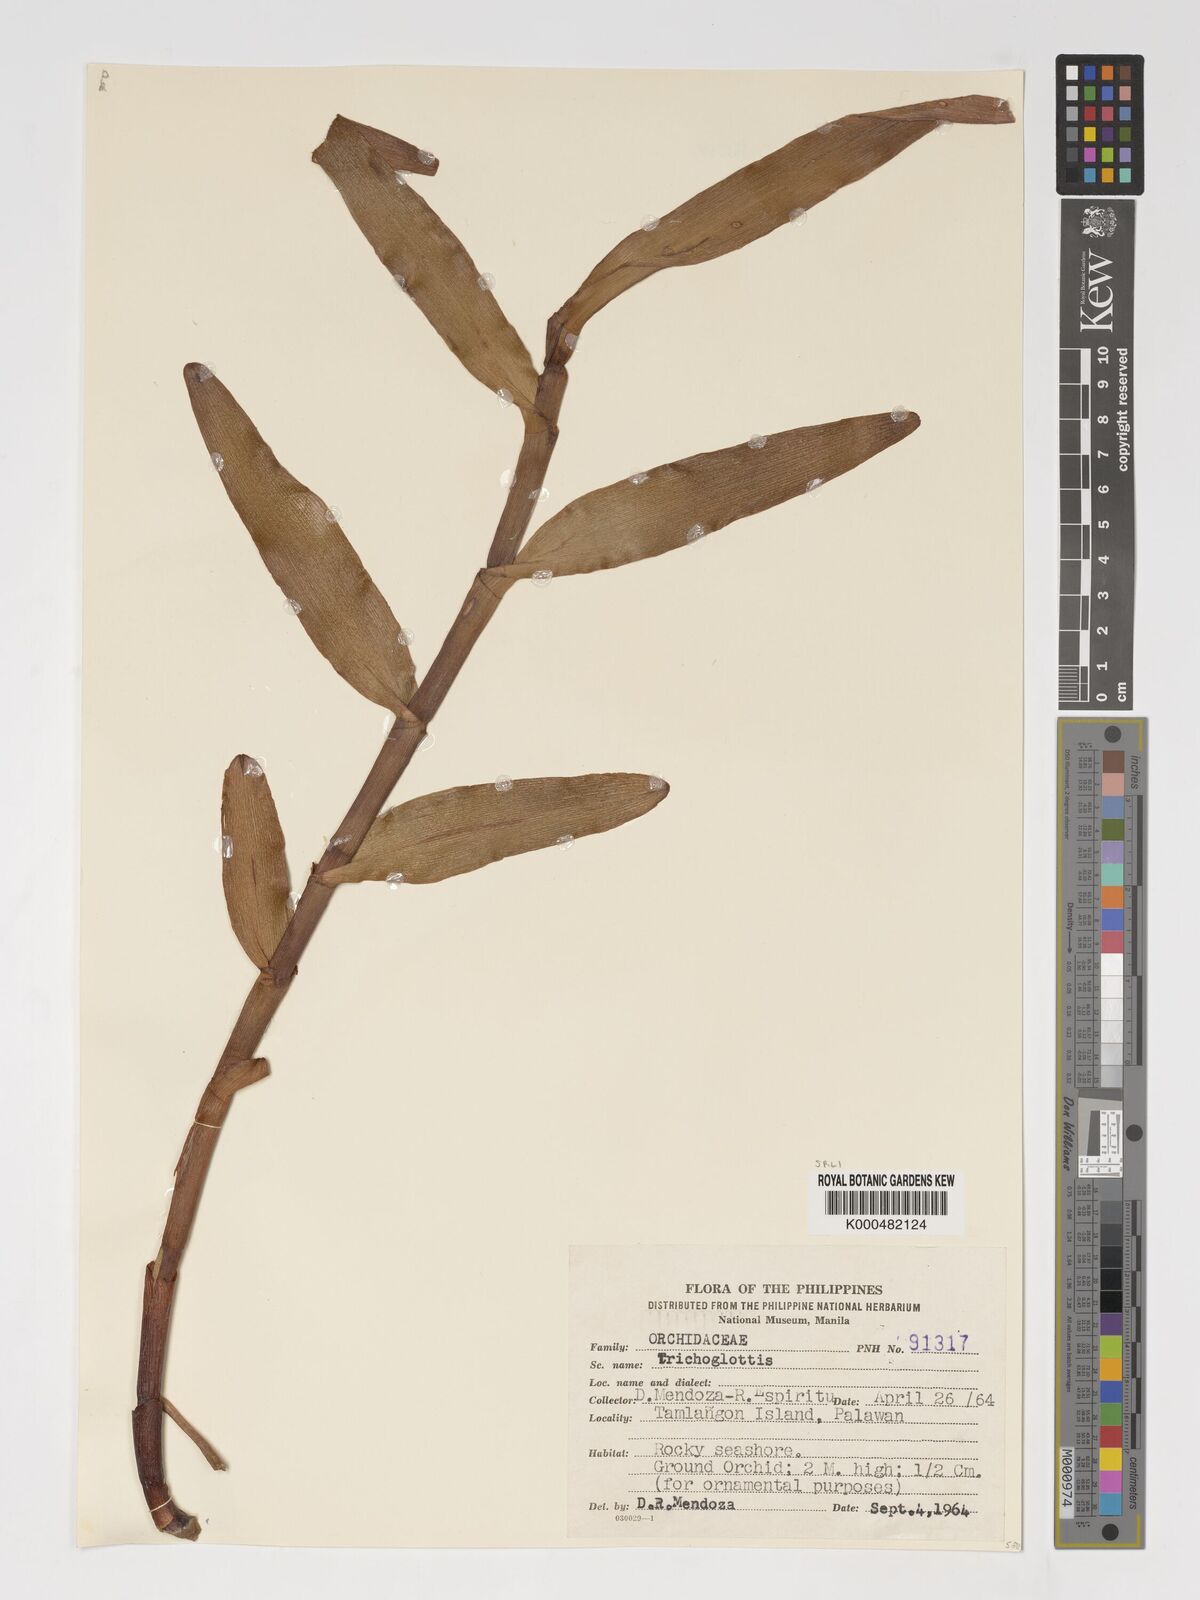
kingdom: Plantae
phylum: Tracheophyta
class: Liliopsida
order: Asparagales
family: Orchidaceae
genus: Bromheadia
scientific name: Bromheadia finlaysoniana
